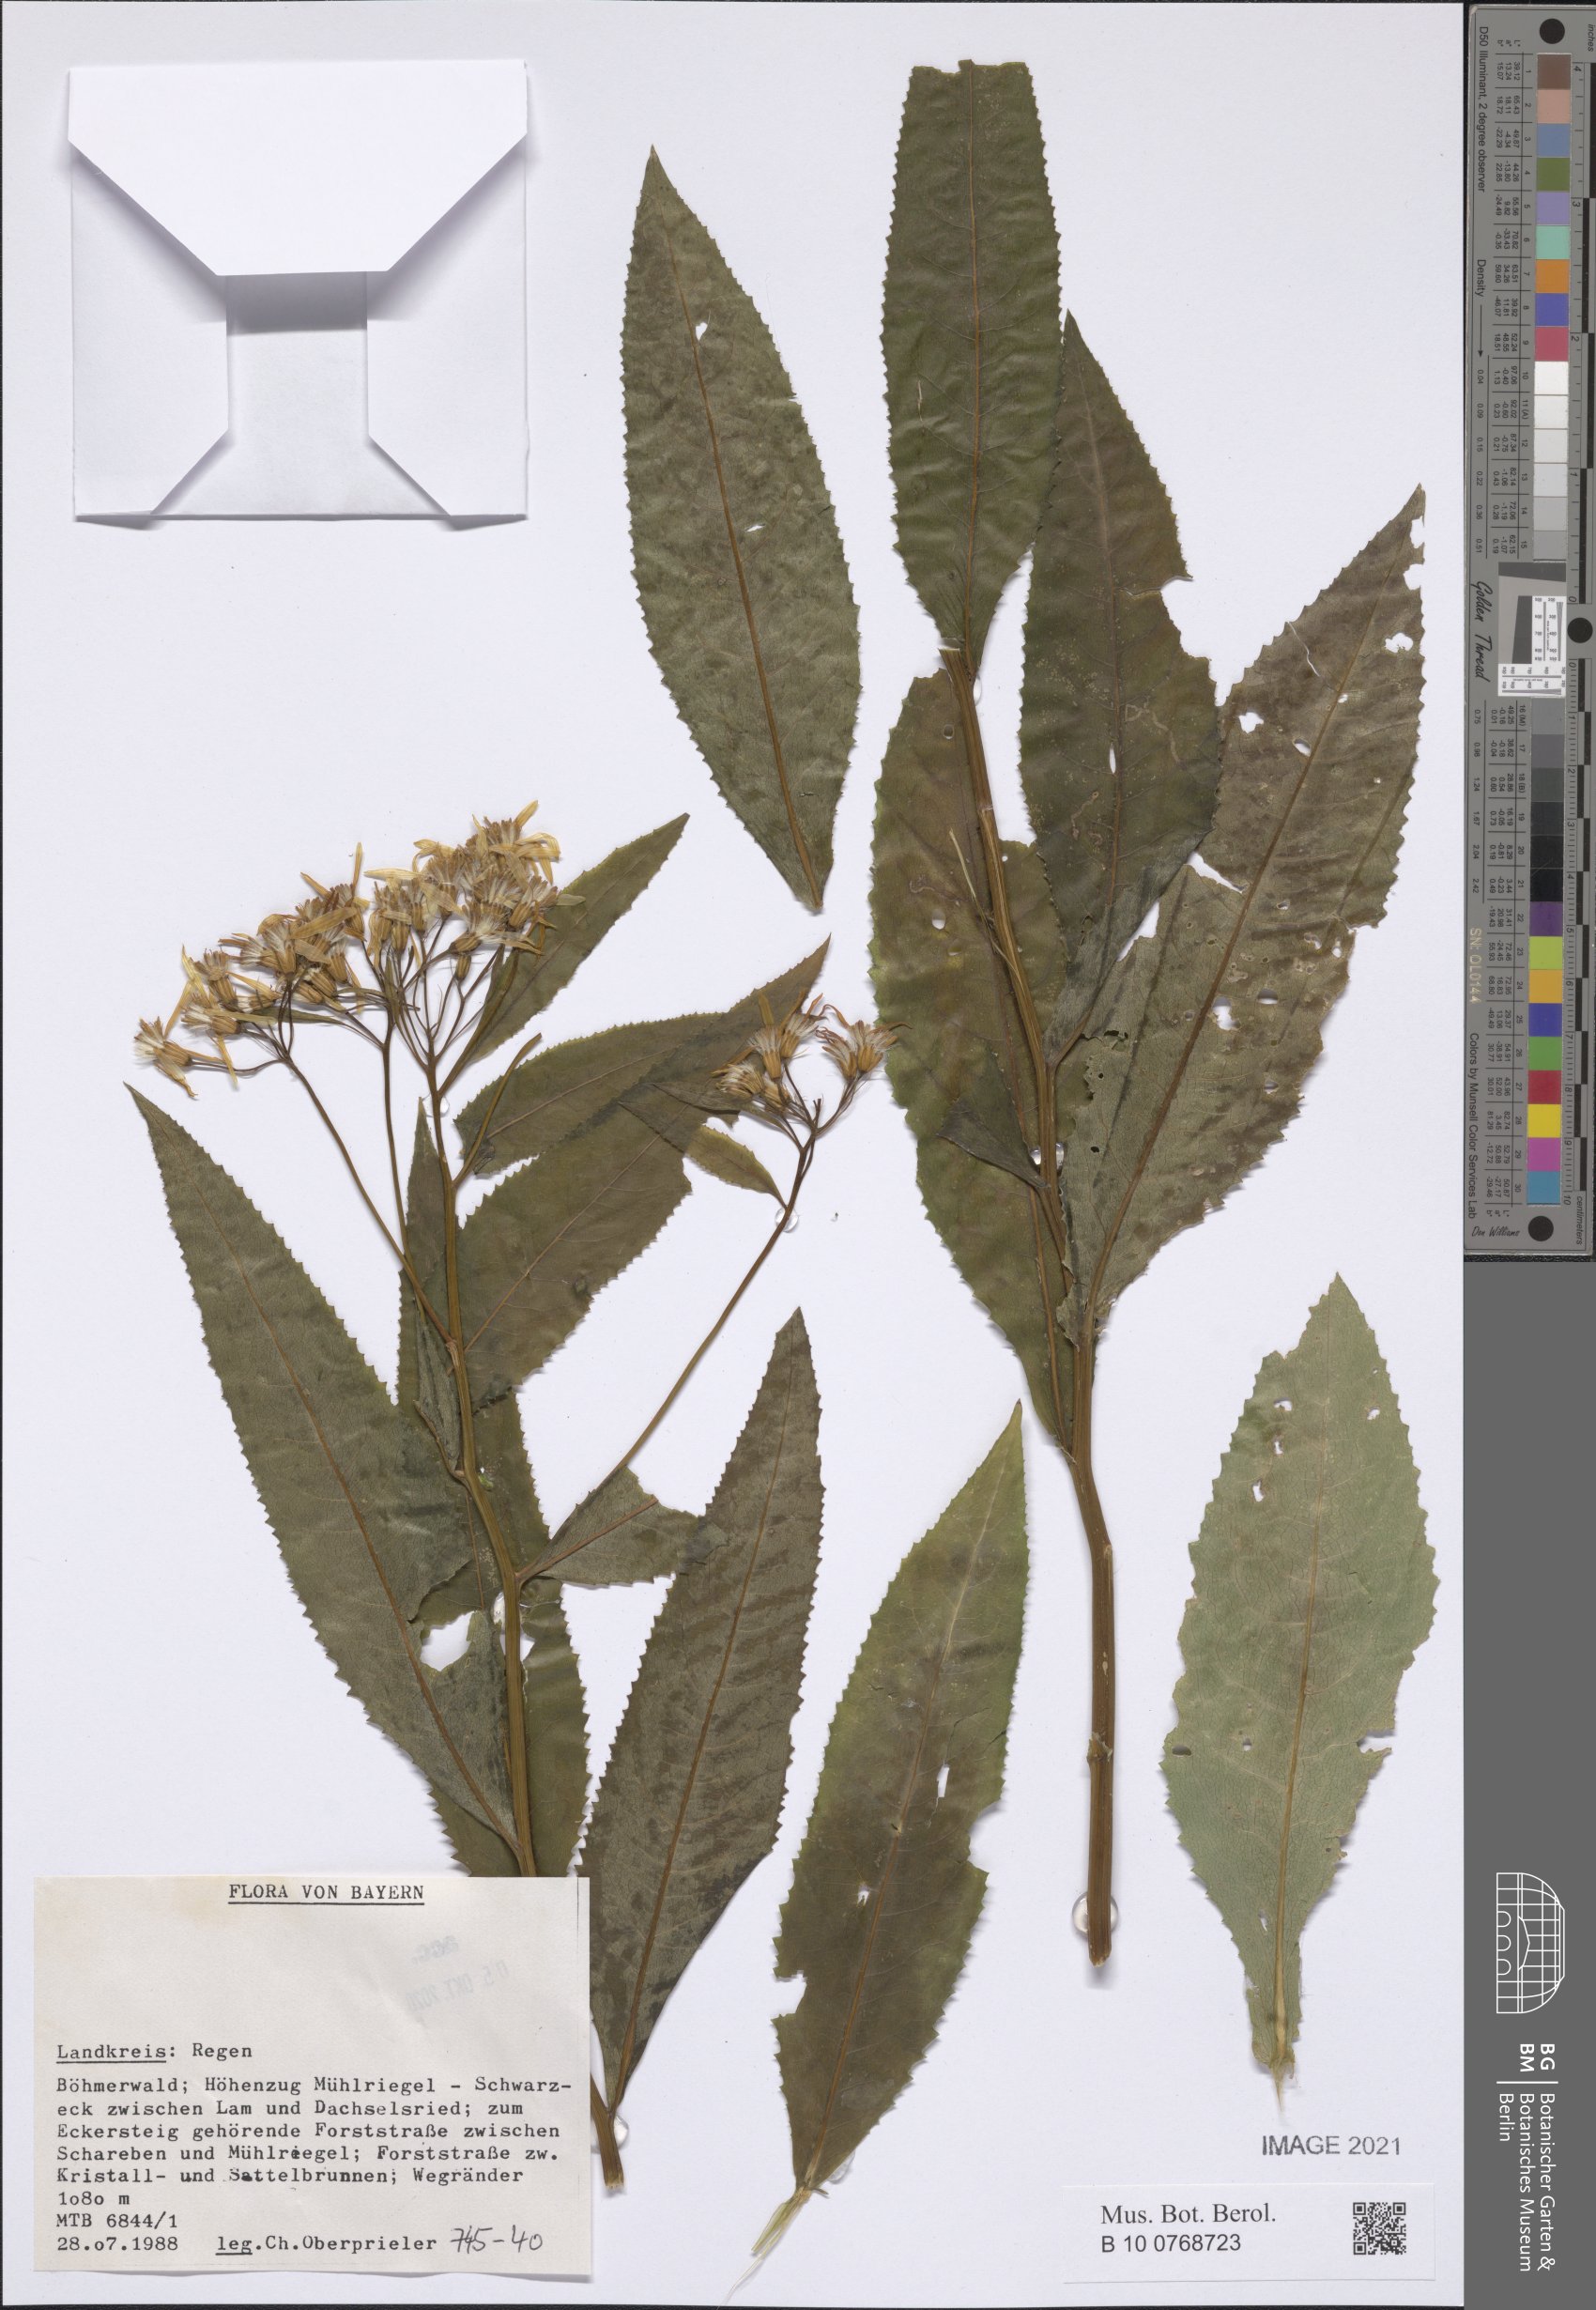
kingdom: Plantae
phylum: Tracheophyta
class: Magnoliopsida
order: Asterales
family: Asteraceae
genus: Senecio
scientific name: Senecio
